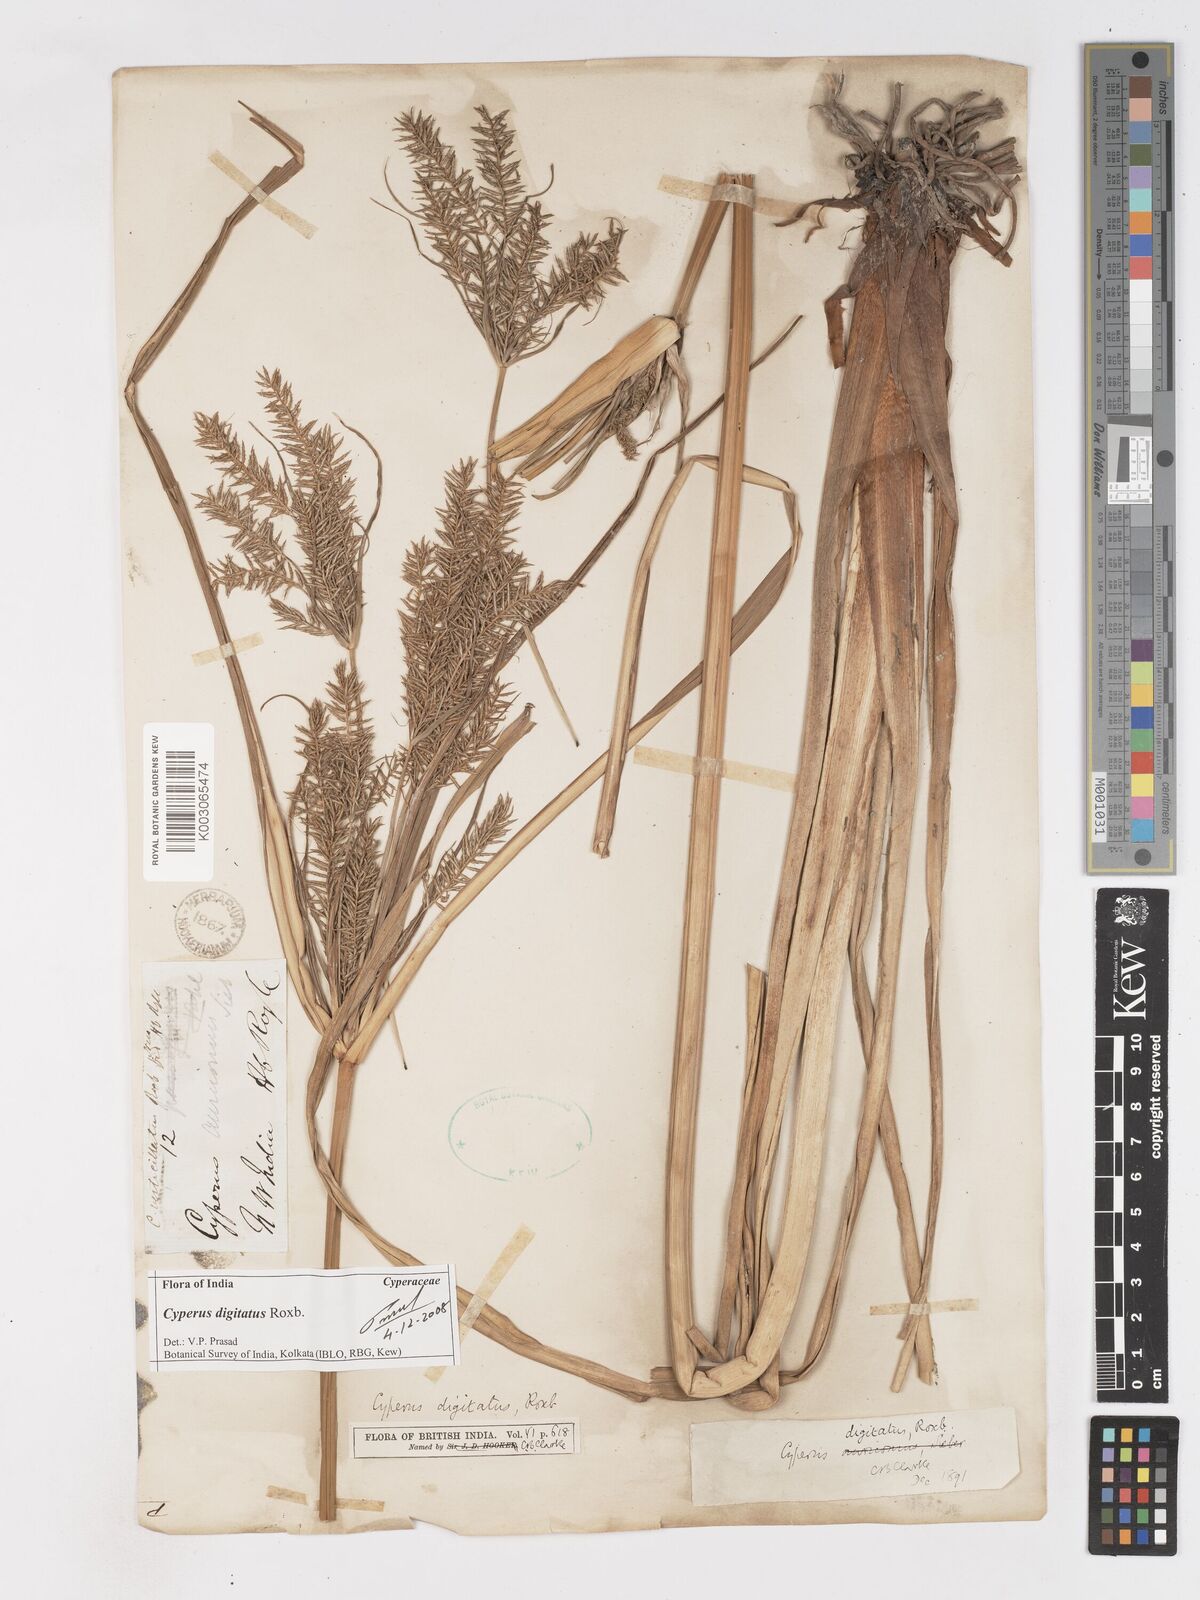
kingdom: Plantae
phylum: Tracheophyta
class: Liliopsida
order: Poales
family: Cyperaceae
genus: Cyperus
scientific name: Cyperus digitatus
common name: Finger flatsedge
